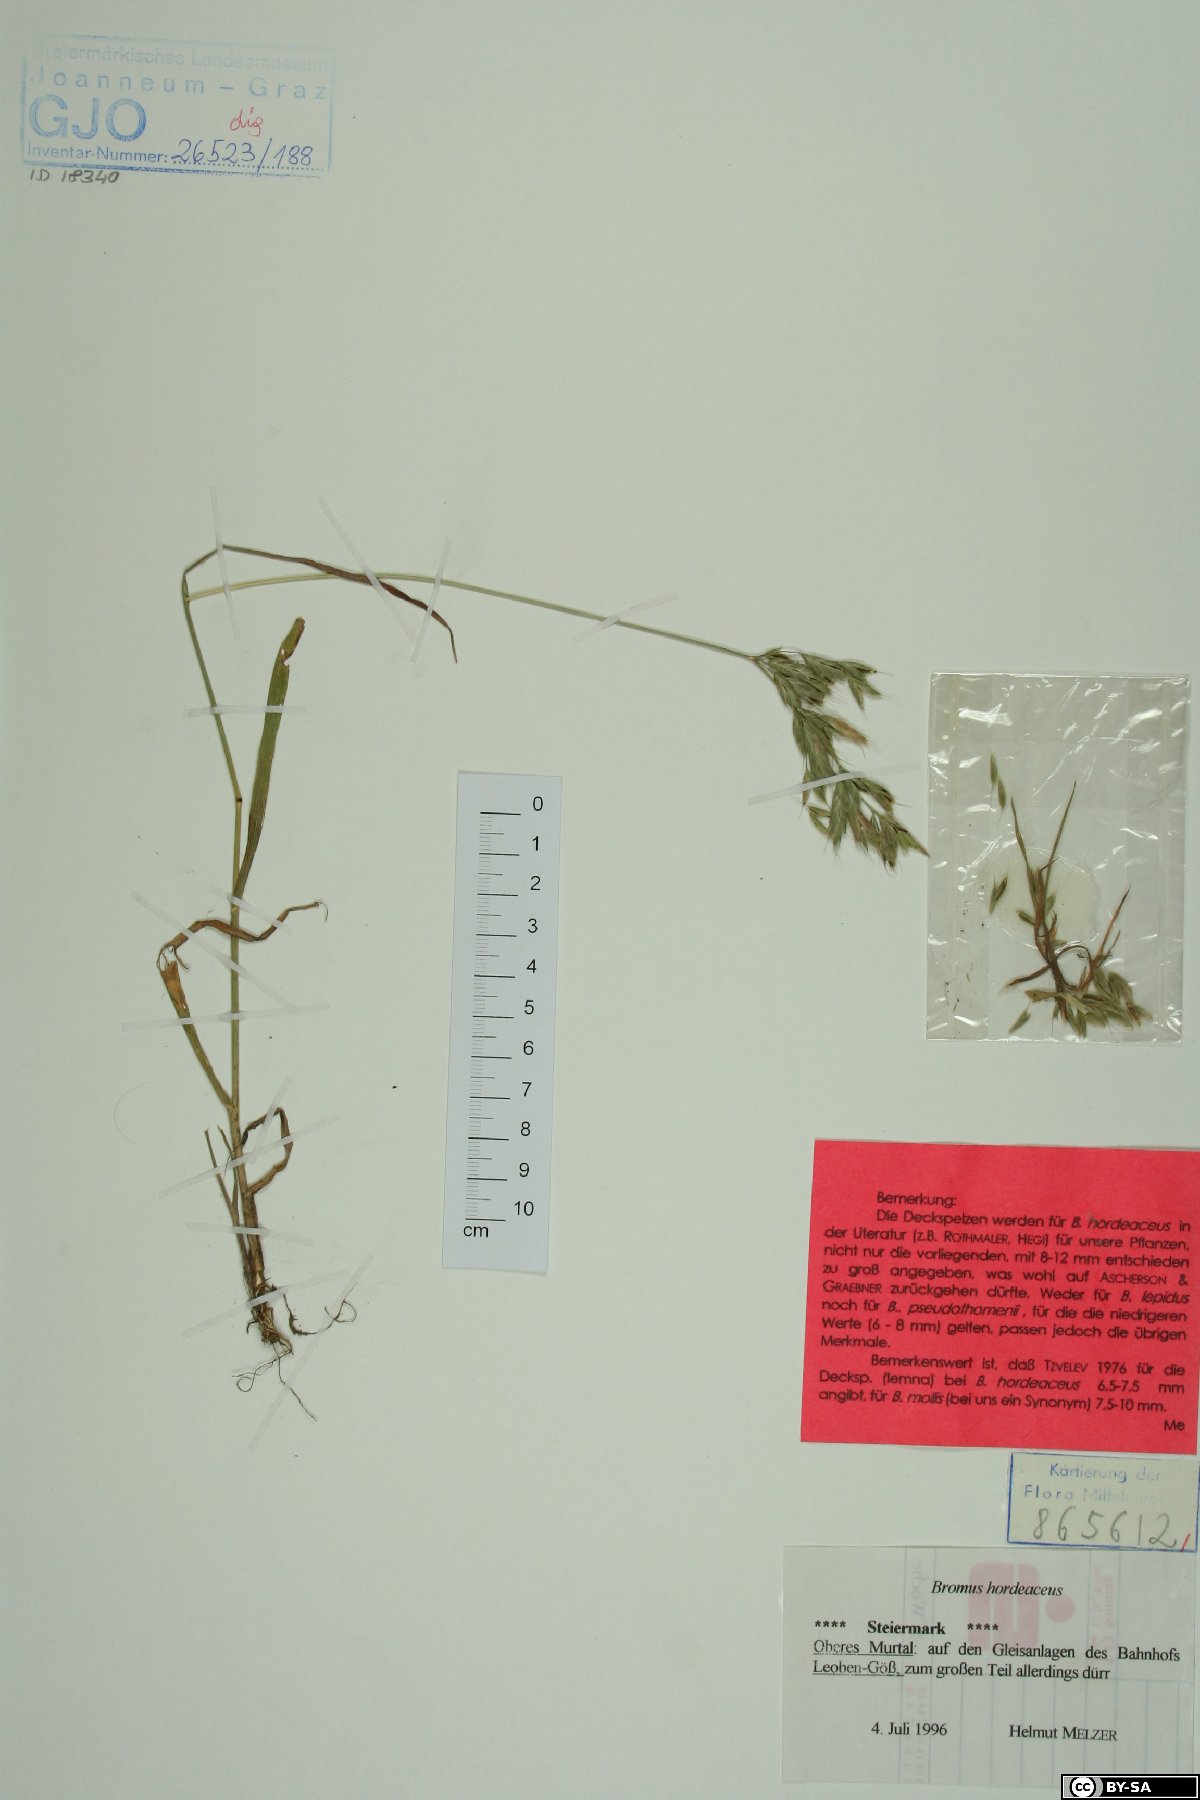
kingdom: Plantae
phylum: Tracheophyta
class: Liliopsida
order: Poales
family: Poaceae
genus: Bromus
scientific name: Bromus hordeaceus
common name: Soft brome
